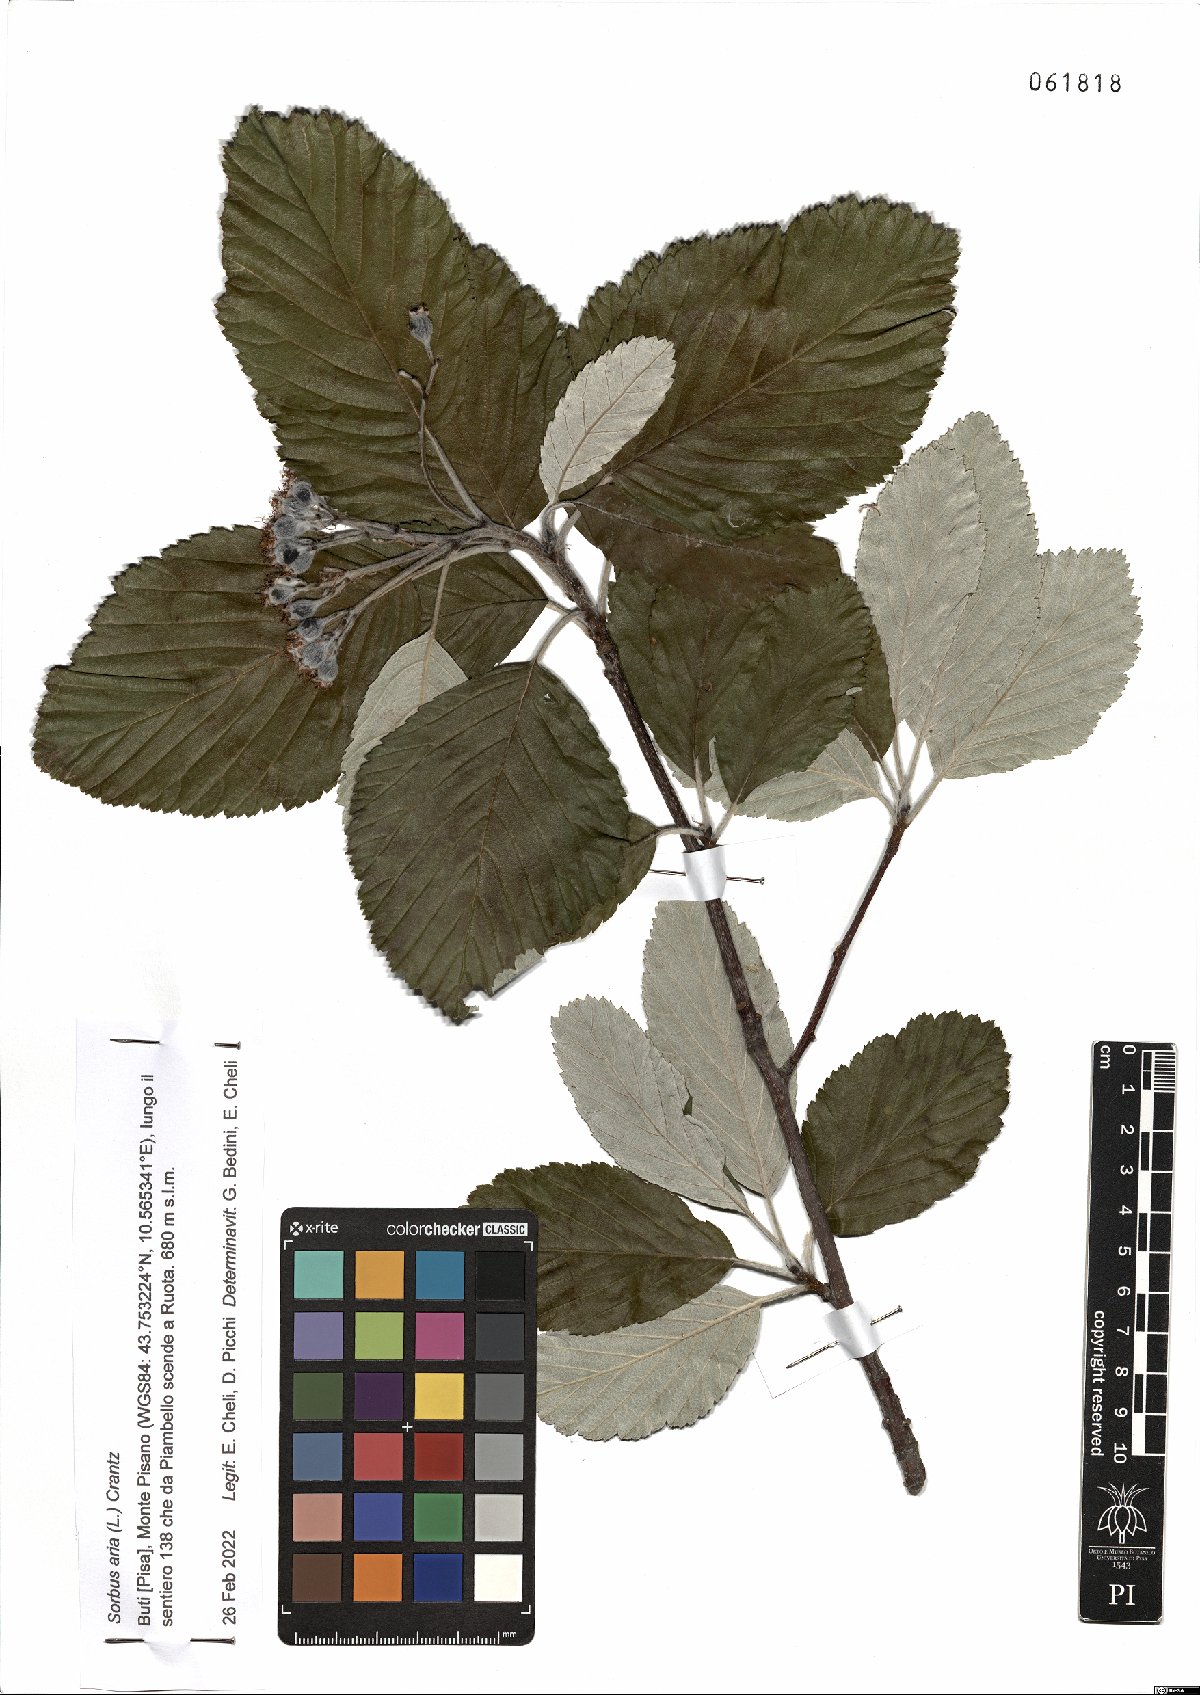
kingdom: Plantae
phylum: Tracheophyta
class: Magnoliopsida
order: Rosales
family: Rosaceae
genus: Aria
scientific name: Aria edulis
